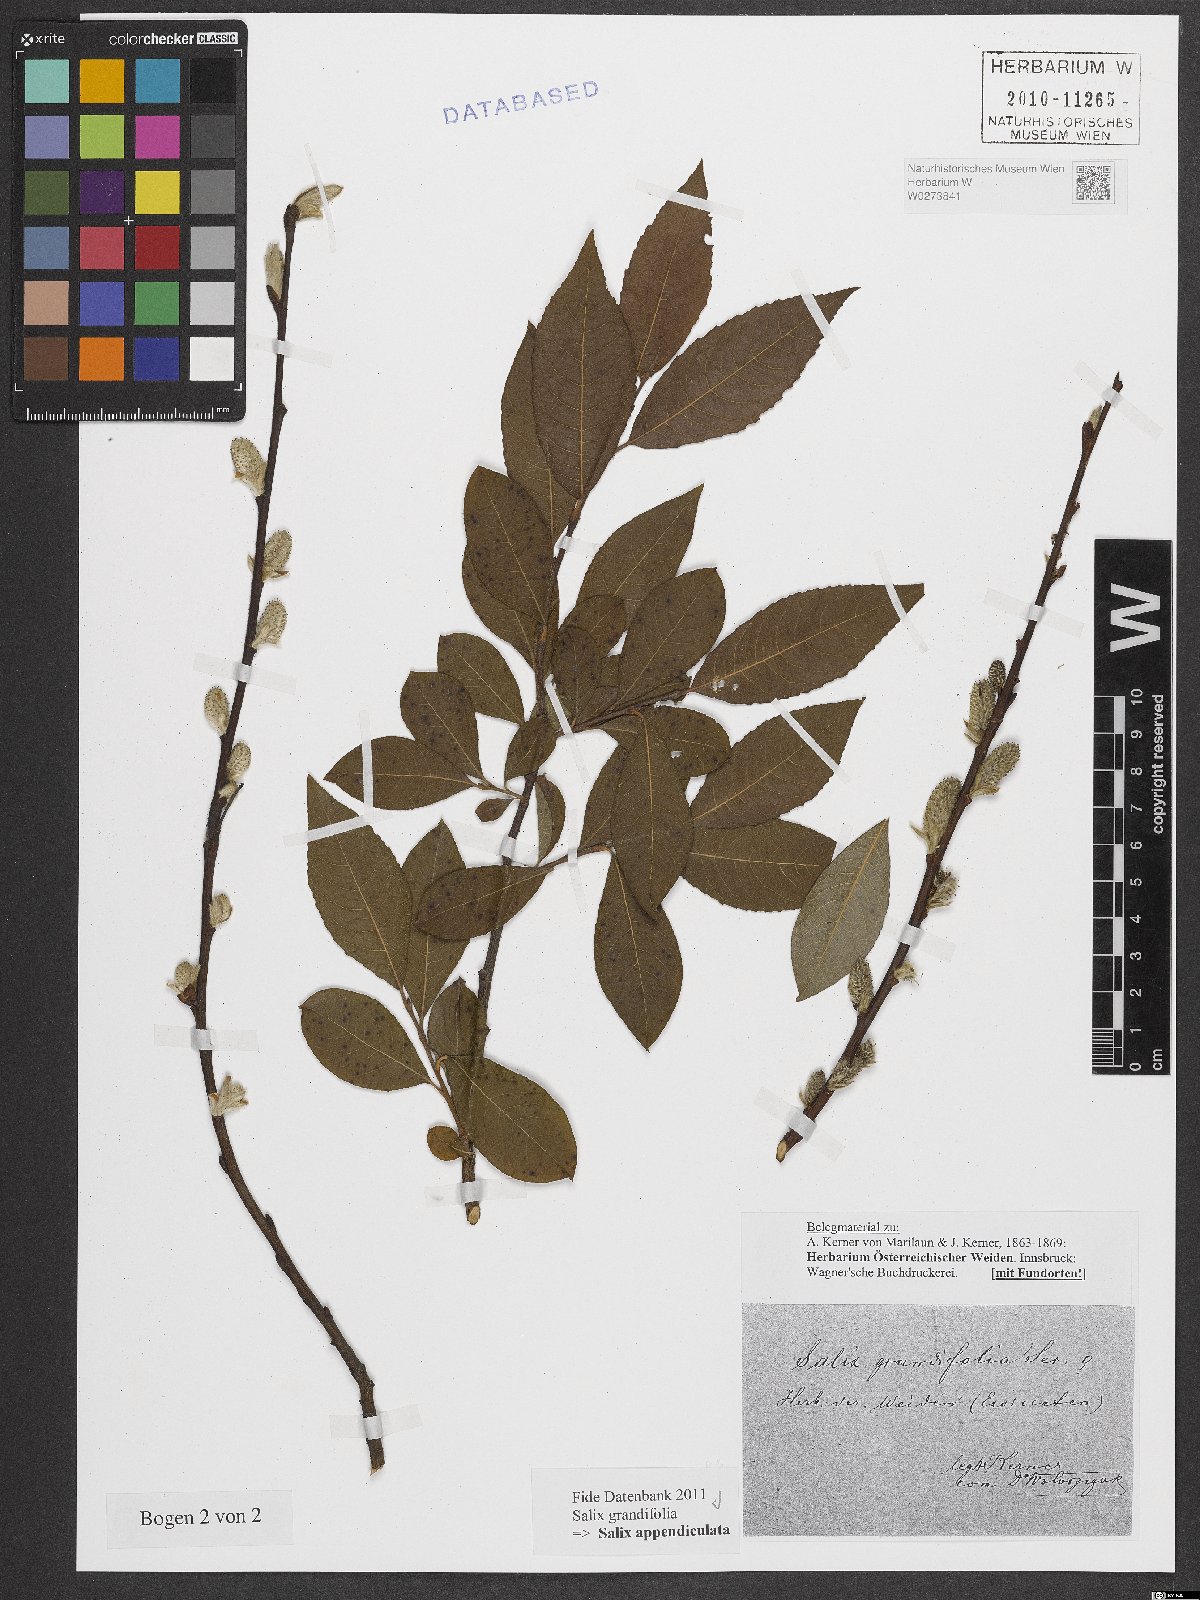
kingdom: Plantae
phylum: Tracheophyta
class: Magnoliopsida
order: Malpighiales
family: Salicaceae
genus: Salix
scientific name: Salix appendiculata
